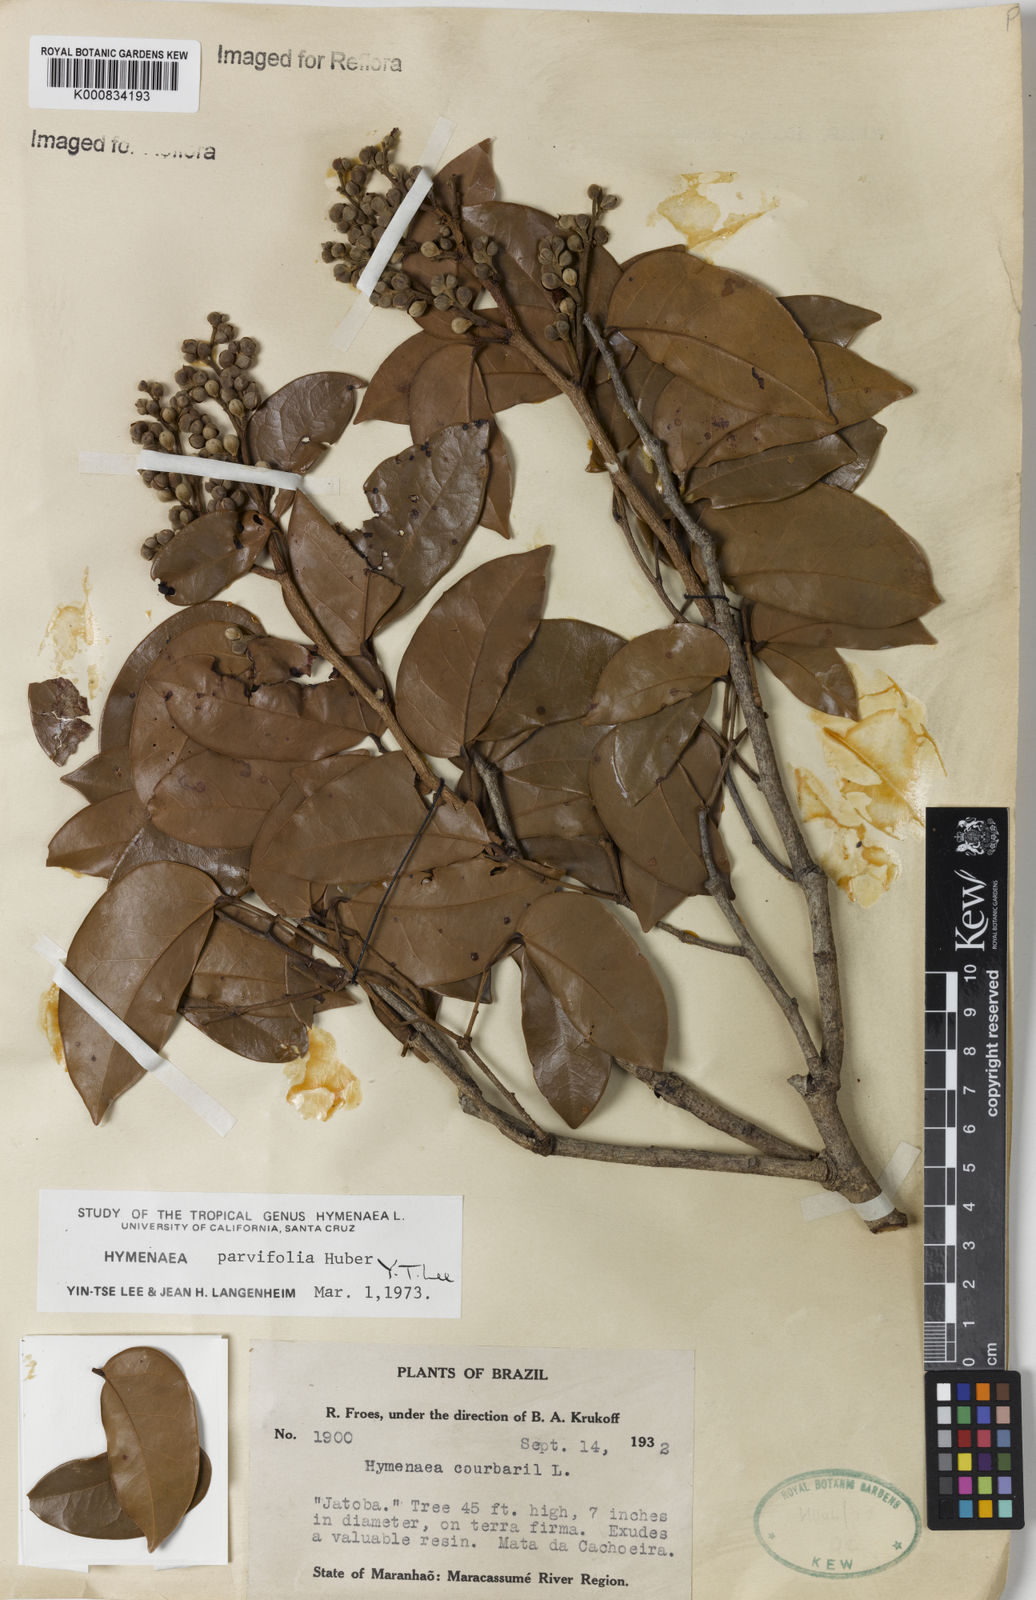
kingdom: Plantae
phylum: Tracheophyta
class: Magnoliopsida
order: Fabales
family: Fabaceae
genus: Hymenaea
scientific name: Hymenaea parvifolia
